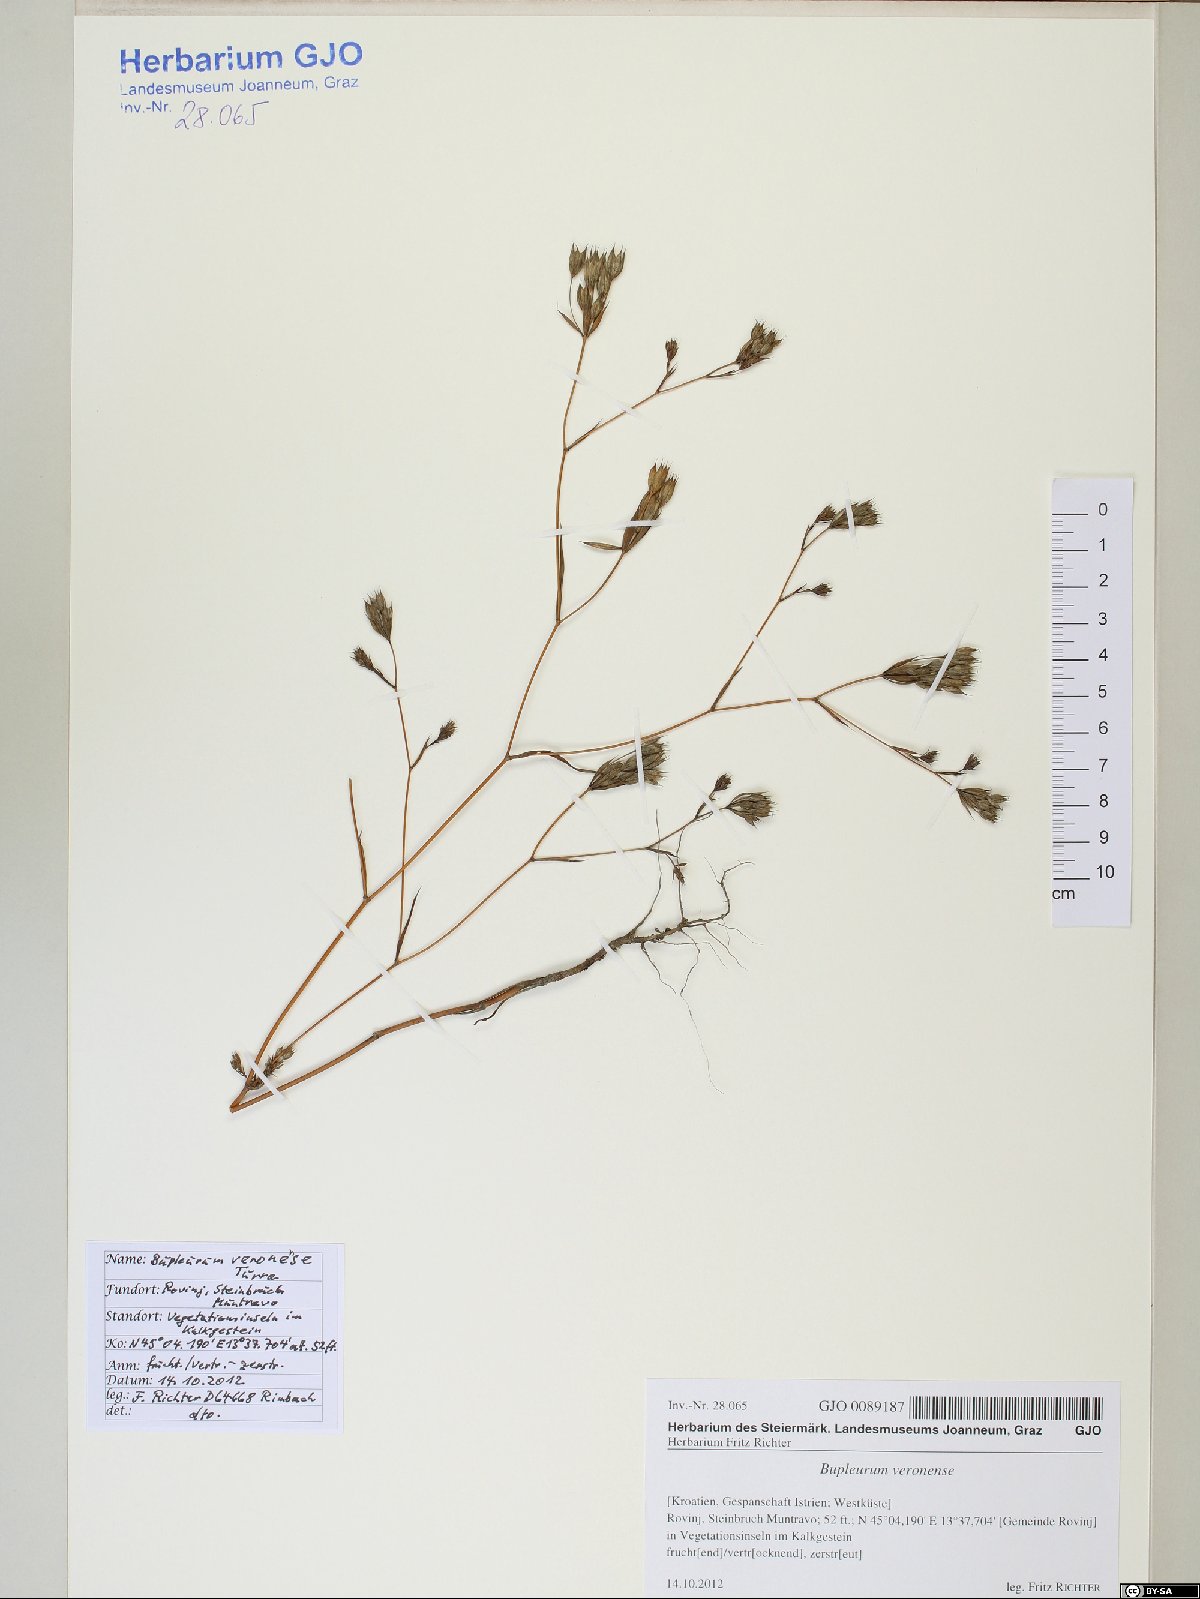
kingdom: Plantae
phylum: Tracheophyta
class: Magnoliopsida
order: Apiales
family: Apiaceae
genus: Bupleurum
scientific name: Bupleurum veronense
